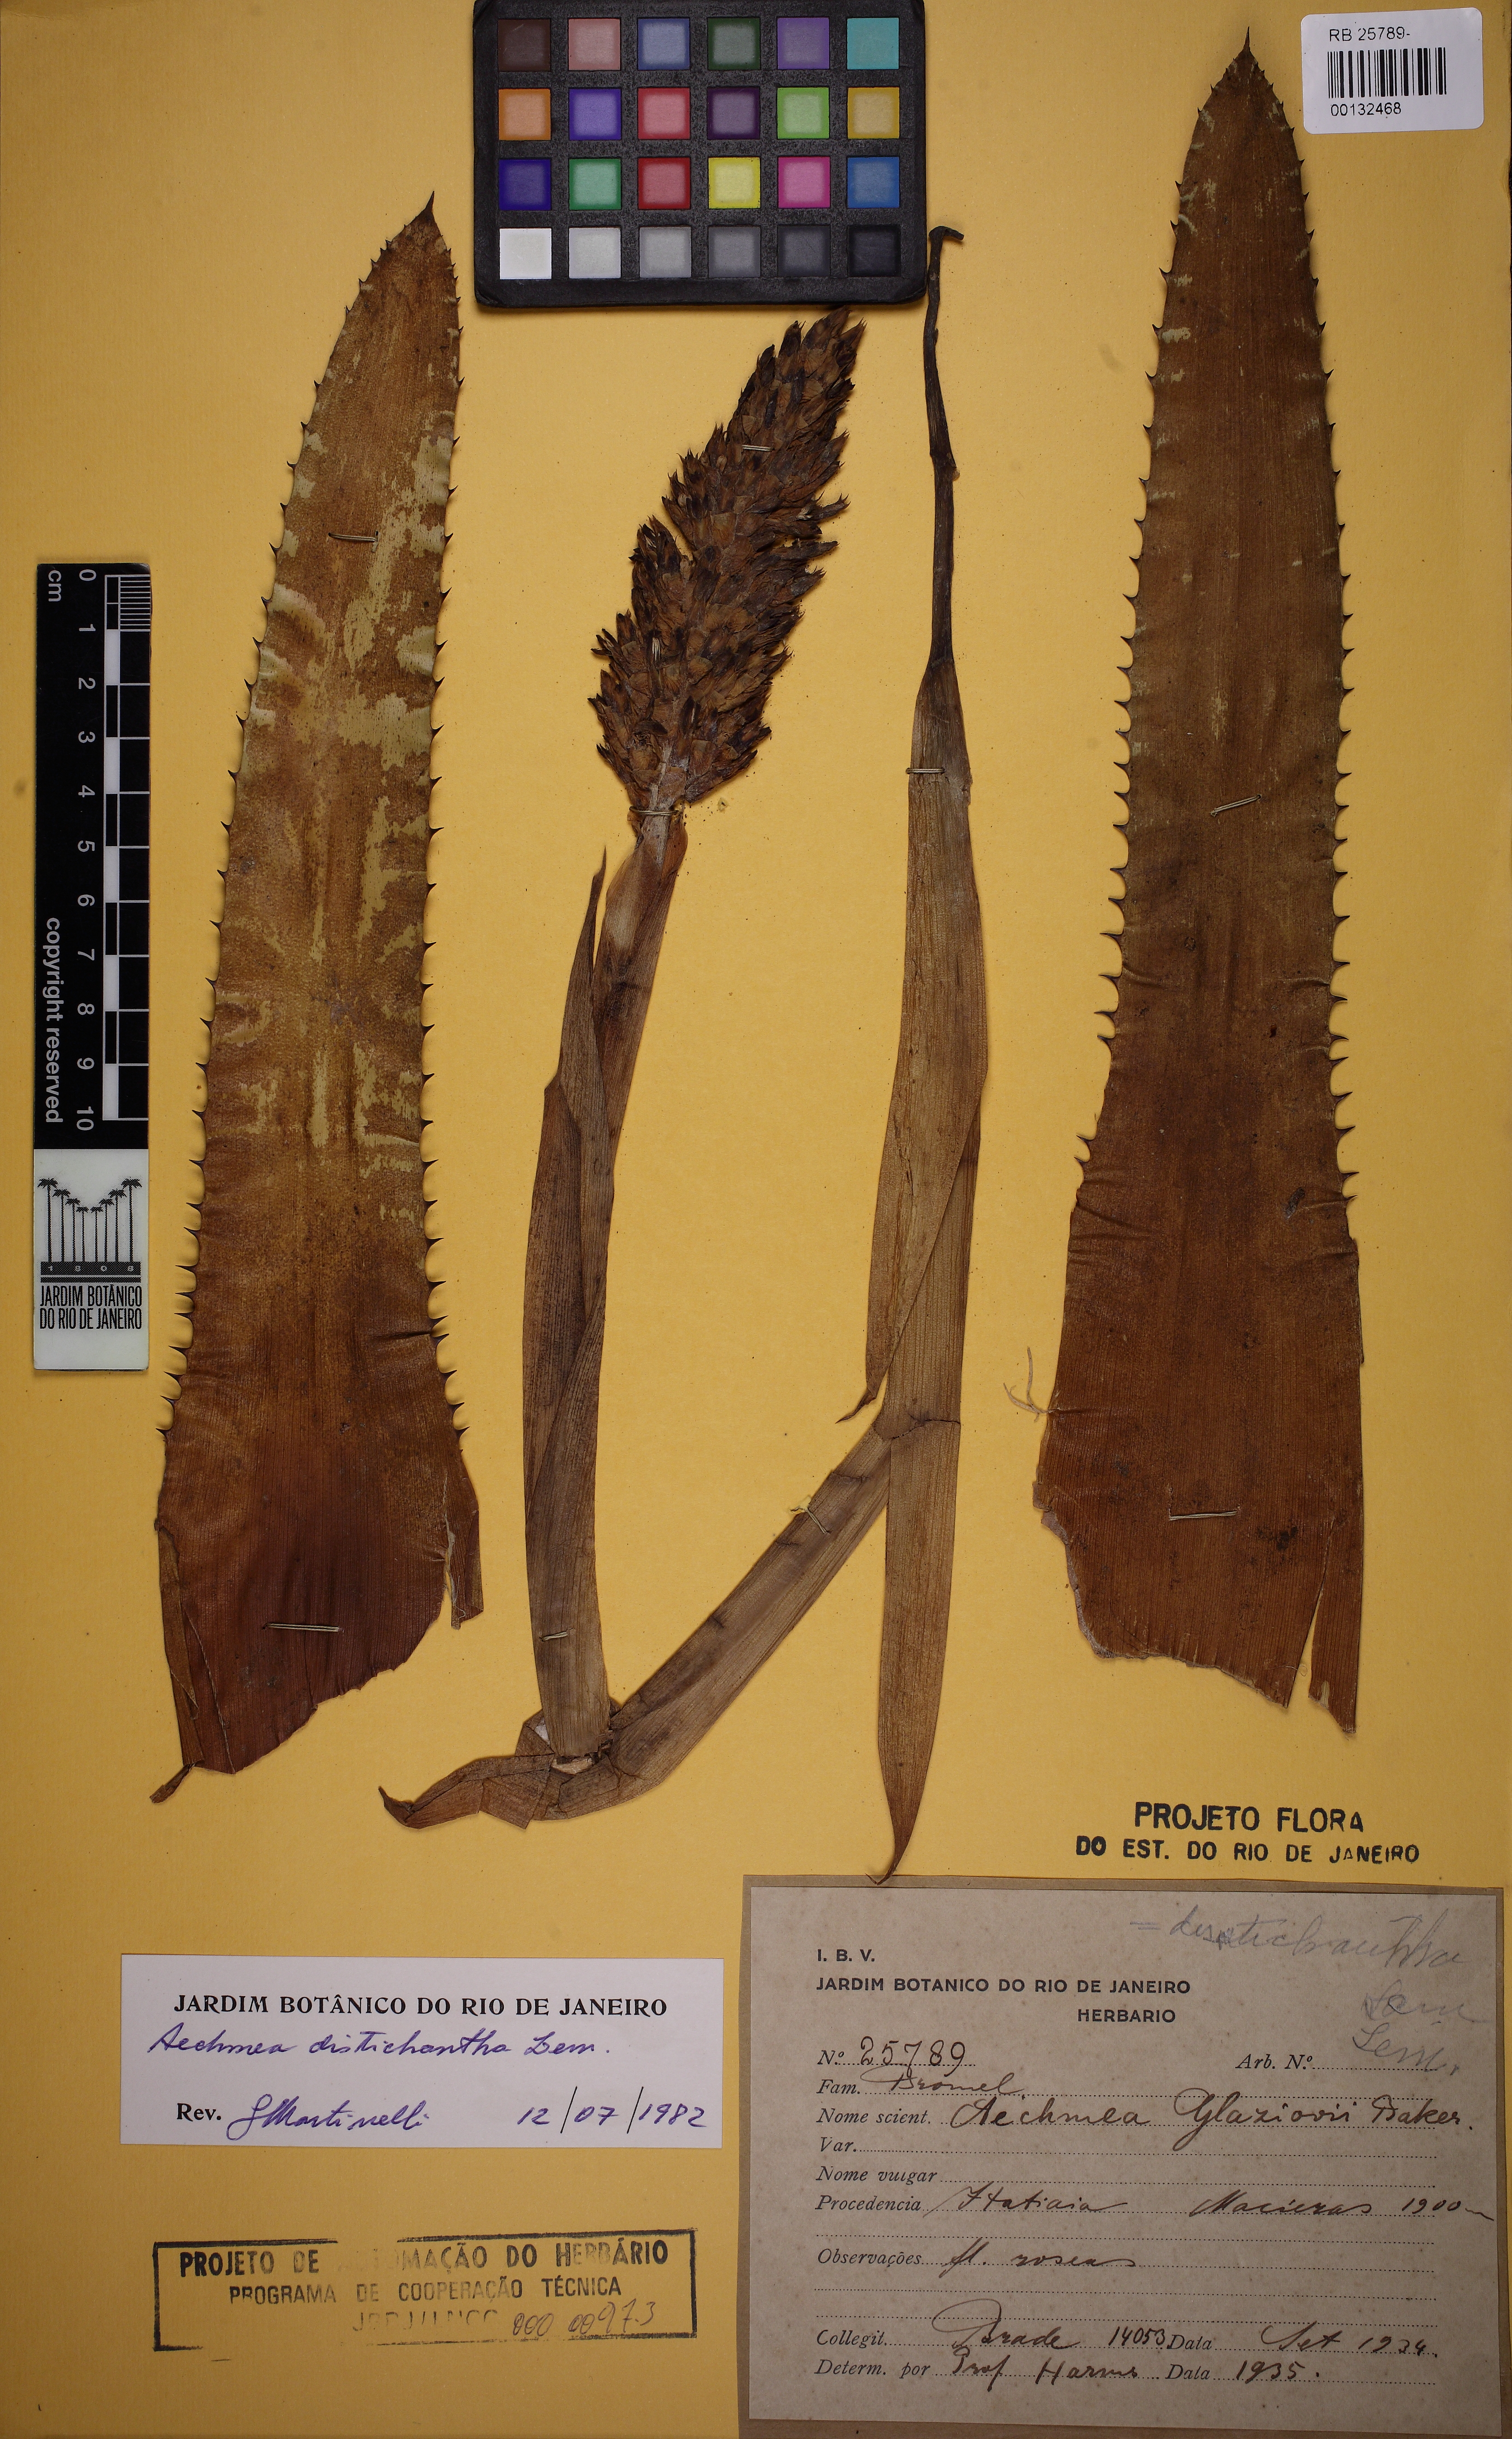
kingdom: Plantae
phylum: Tracheophyta
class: Liliopsida
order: Poales
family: Bromeliaceae
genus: Aechmea
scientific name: Aechmea distichantha
